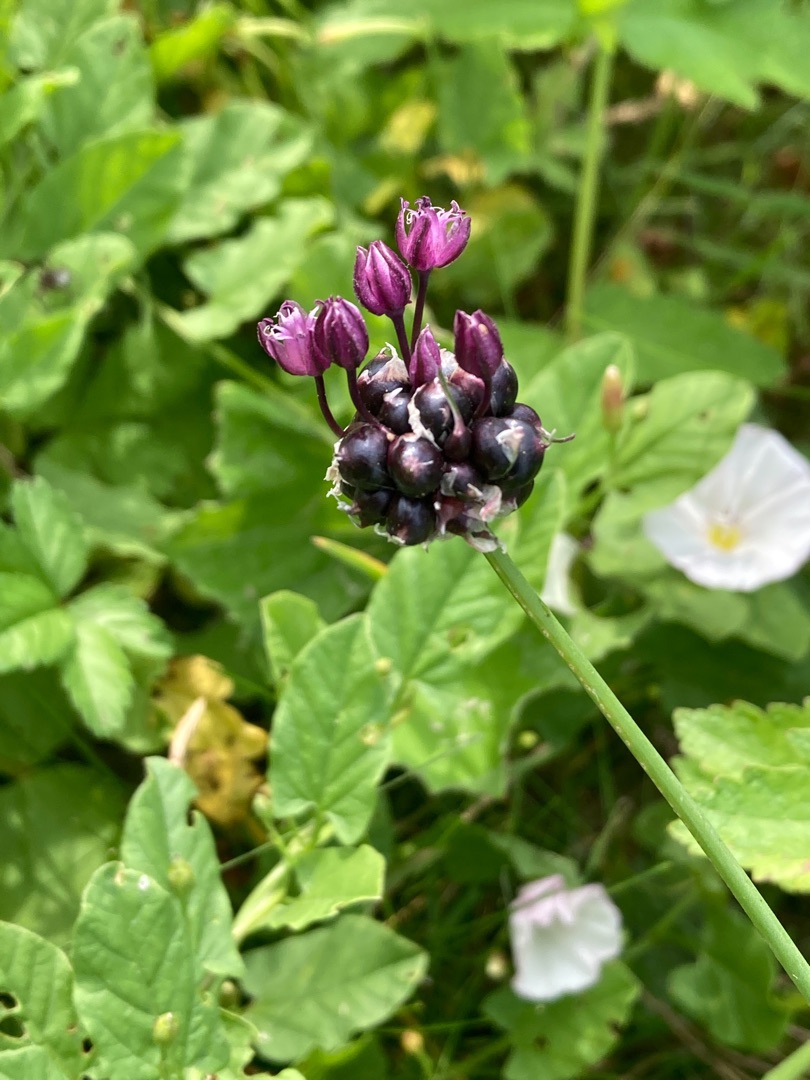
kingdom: Plantae
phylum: Tracheophyta
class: Liliopsida
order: Asparagales
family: Amaryllidaceae
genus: Allium
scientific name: Allium scorodoprasum
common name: Skov-løg
